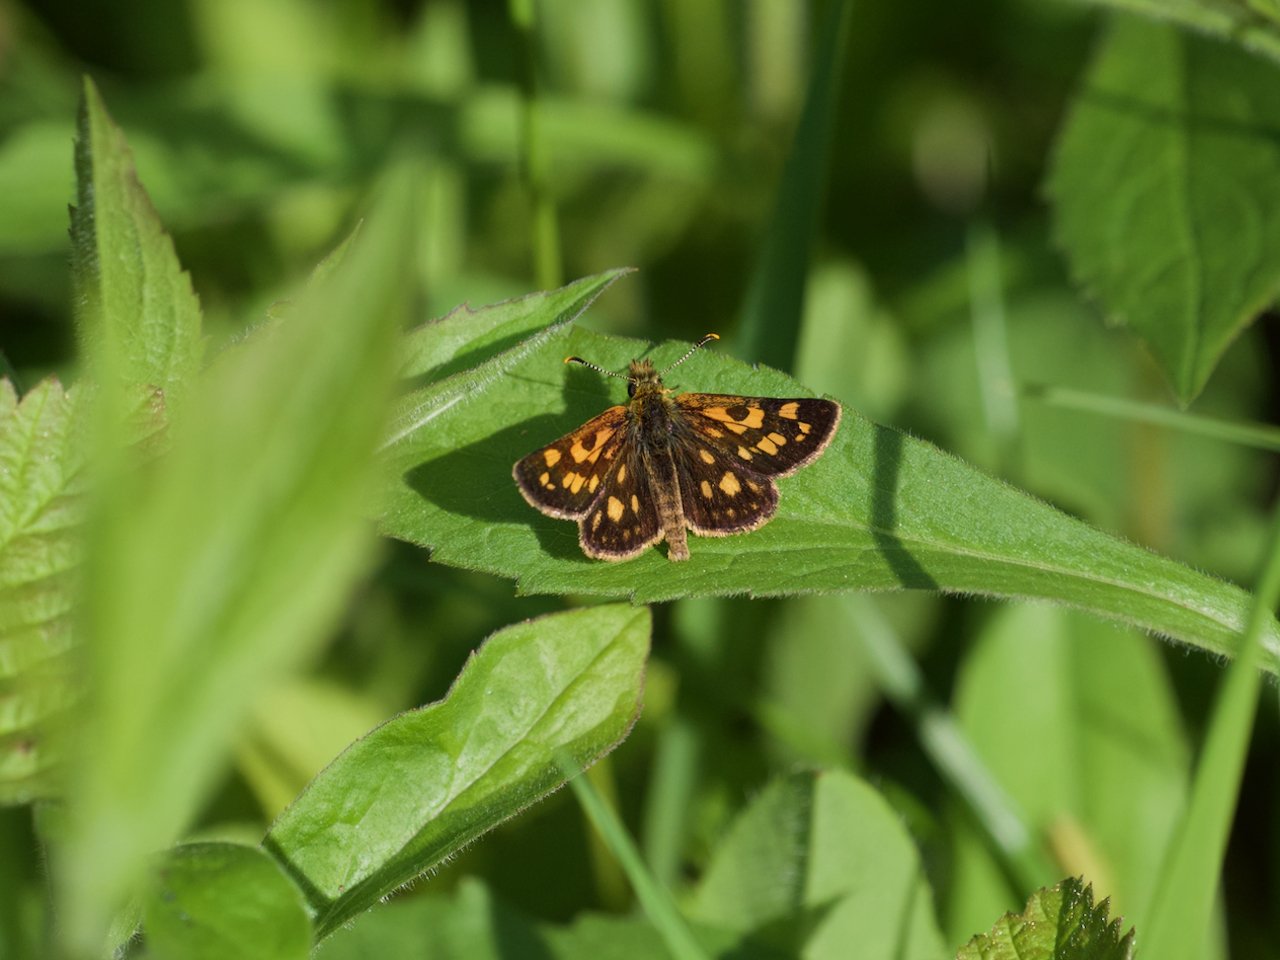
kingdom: Animalia
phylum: Arthropoda
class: Insecta
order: Lepidoptera
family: Hesperiidae
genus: Carterocephalus
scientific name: Carterocephalus palaemon
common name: Chequered Skipper
